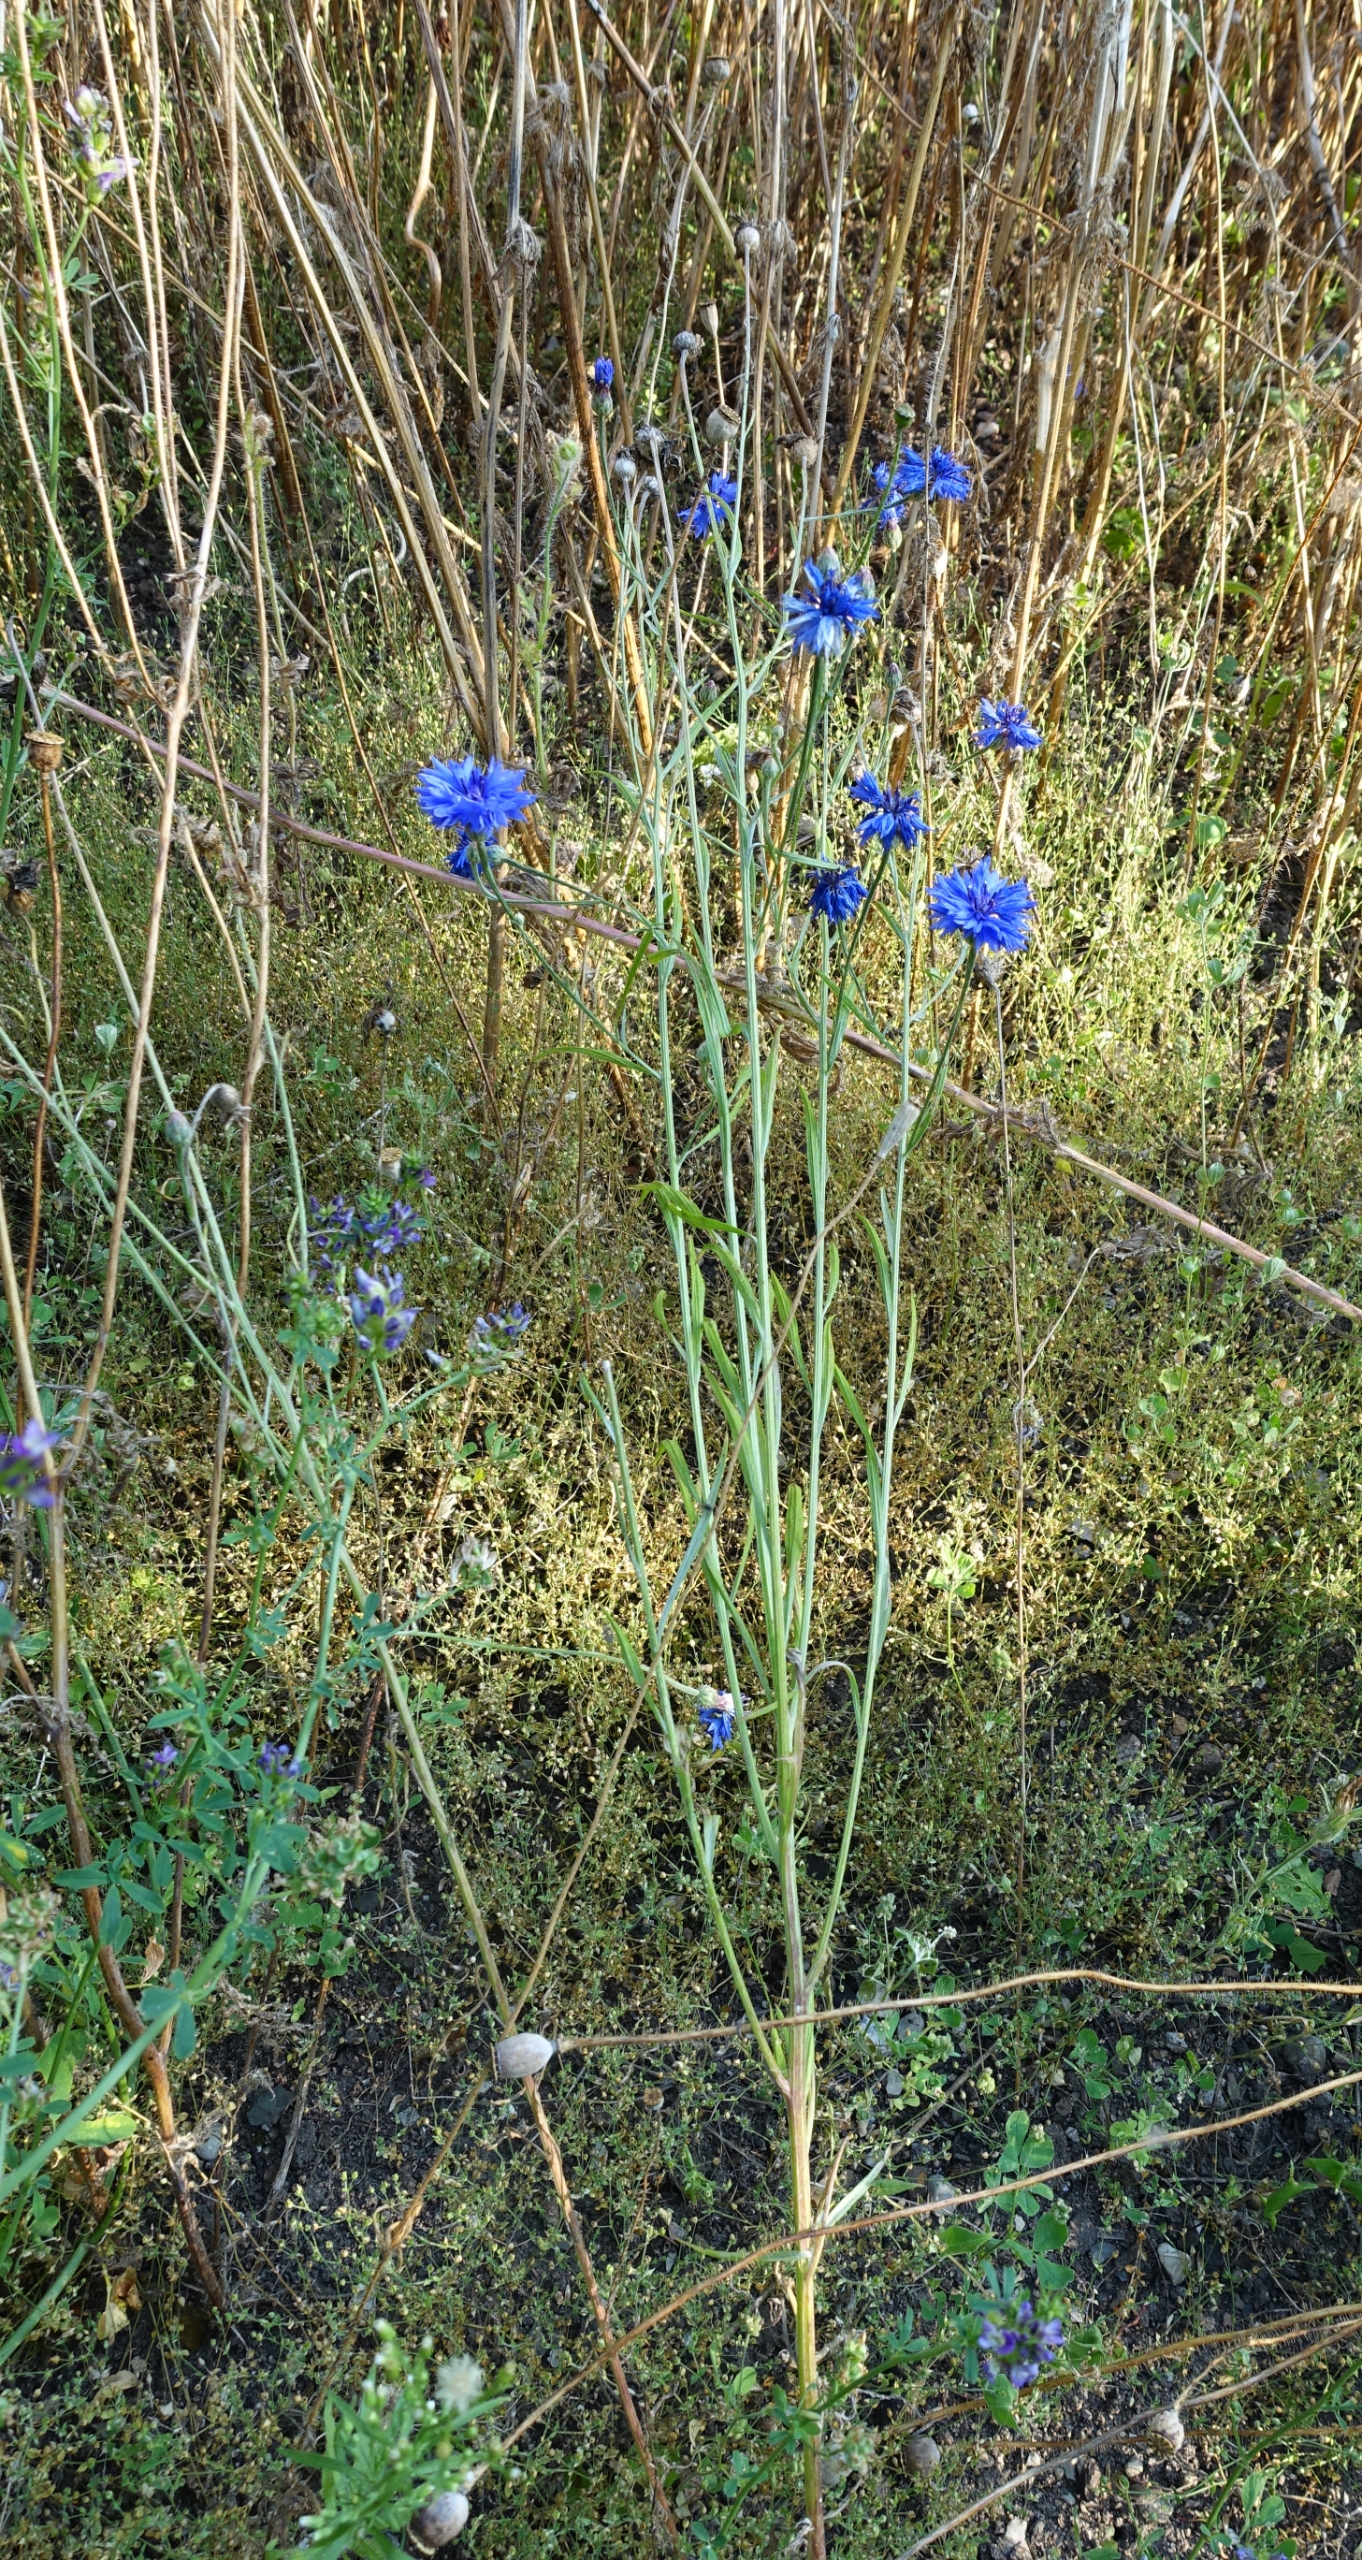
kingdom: Plantae
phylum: Tracheophyta
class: Magnoliopsida
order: Asterales
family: Asteraceae
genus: Centaurea
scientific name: Centaurea cyanus
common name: Kornblomst
